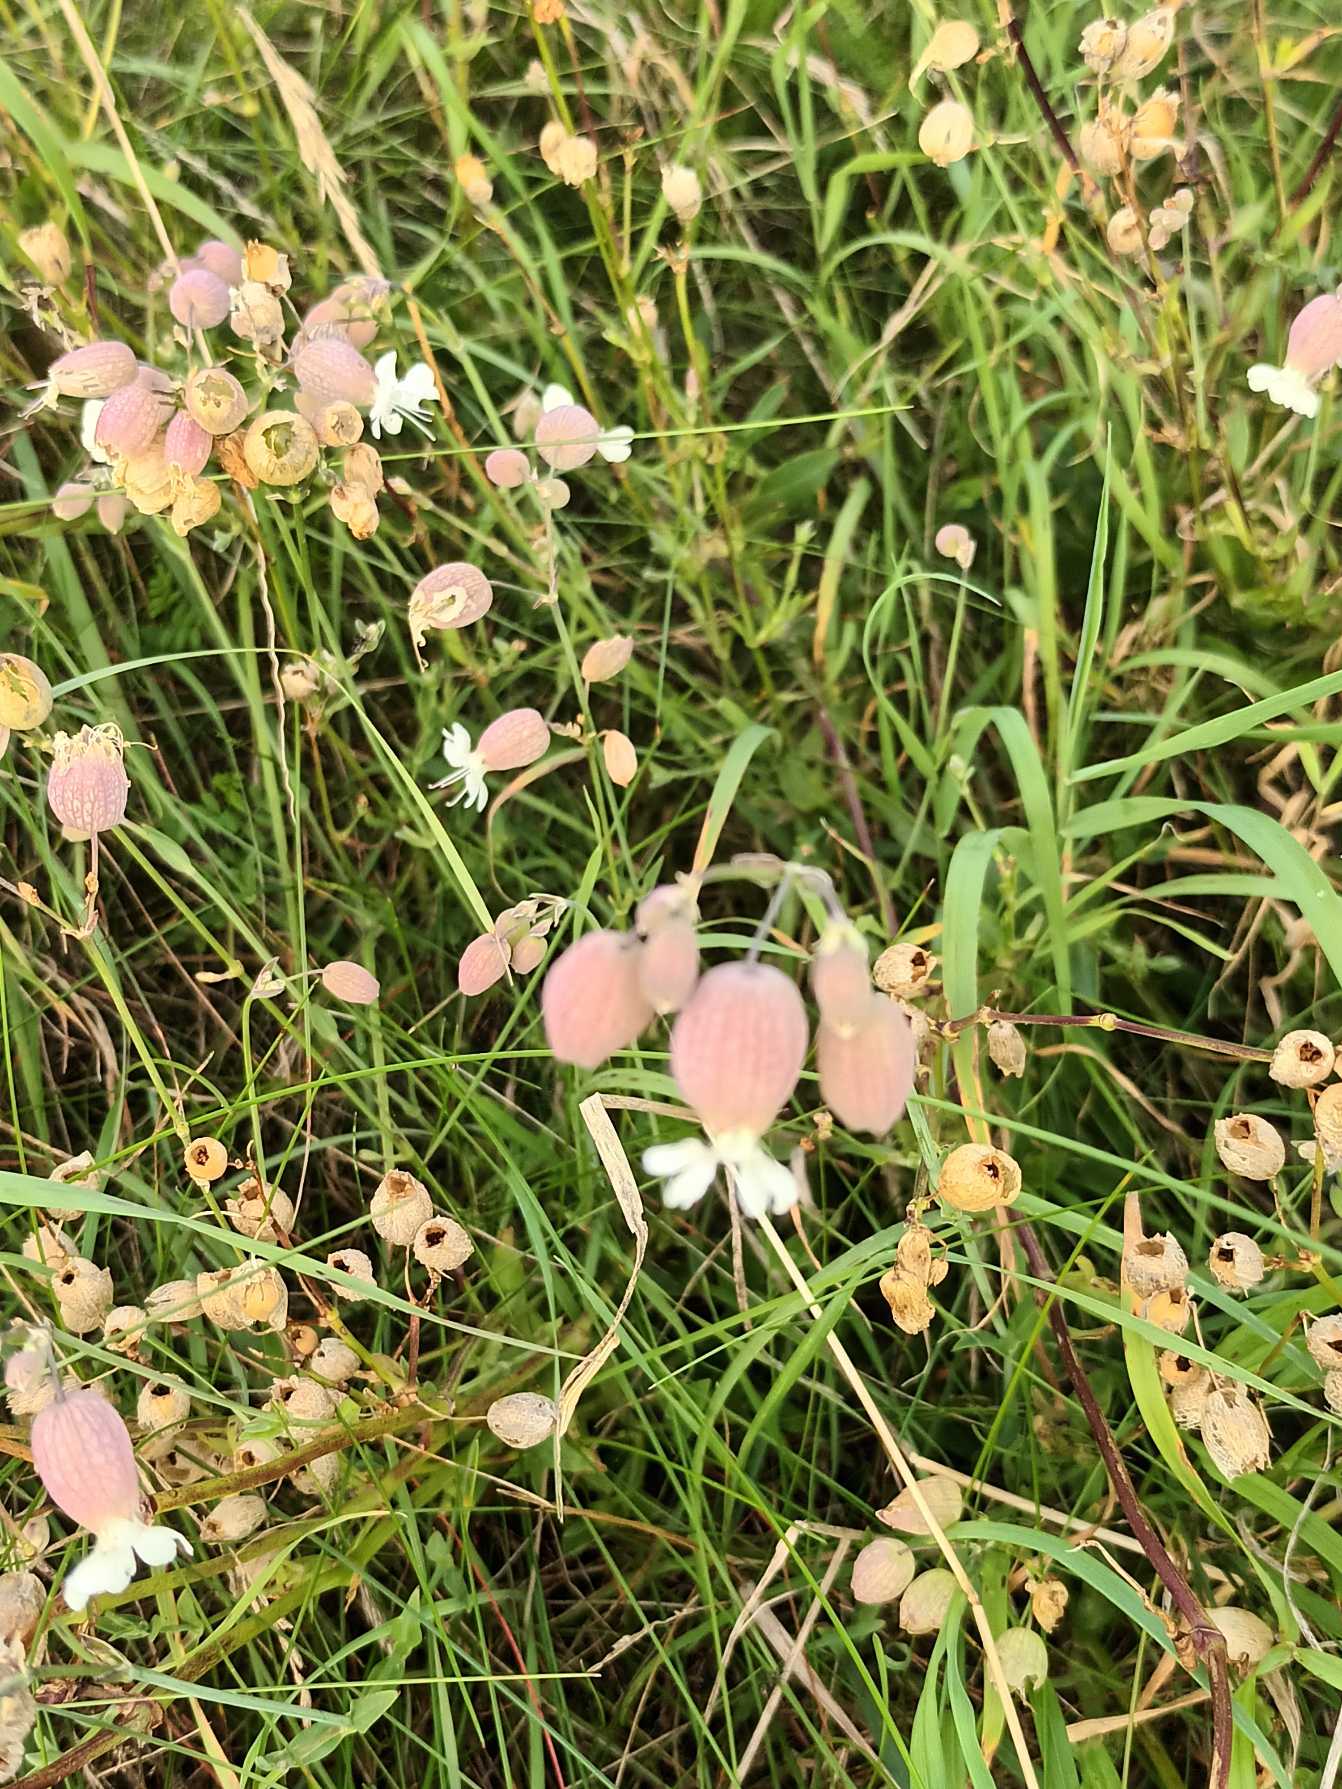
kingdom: Plantae
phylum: Tracheophyta
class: Magnoliopsida
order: Caryophyllales
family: Caryophyllaceae
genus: Silene
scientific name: Silene vulgaris
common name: Blæresmælde
